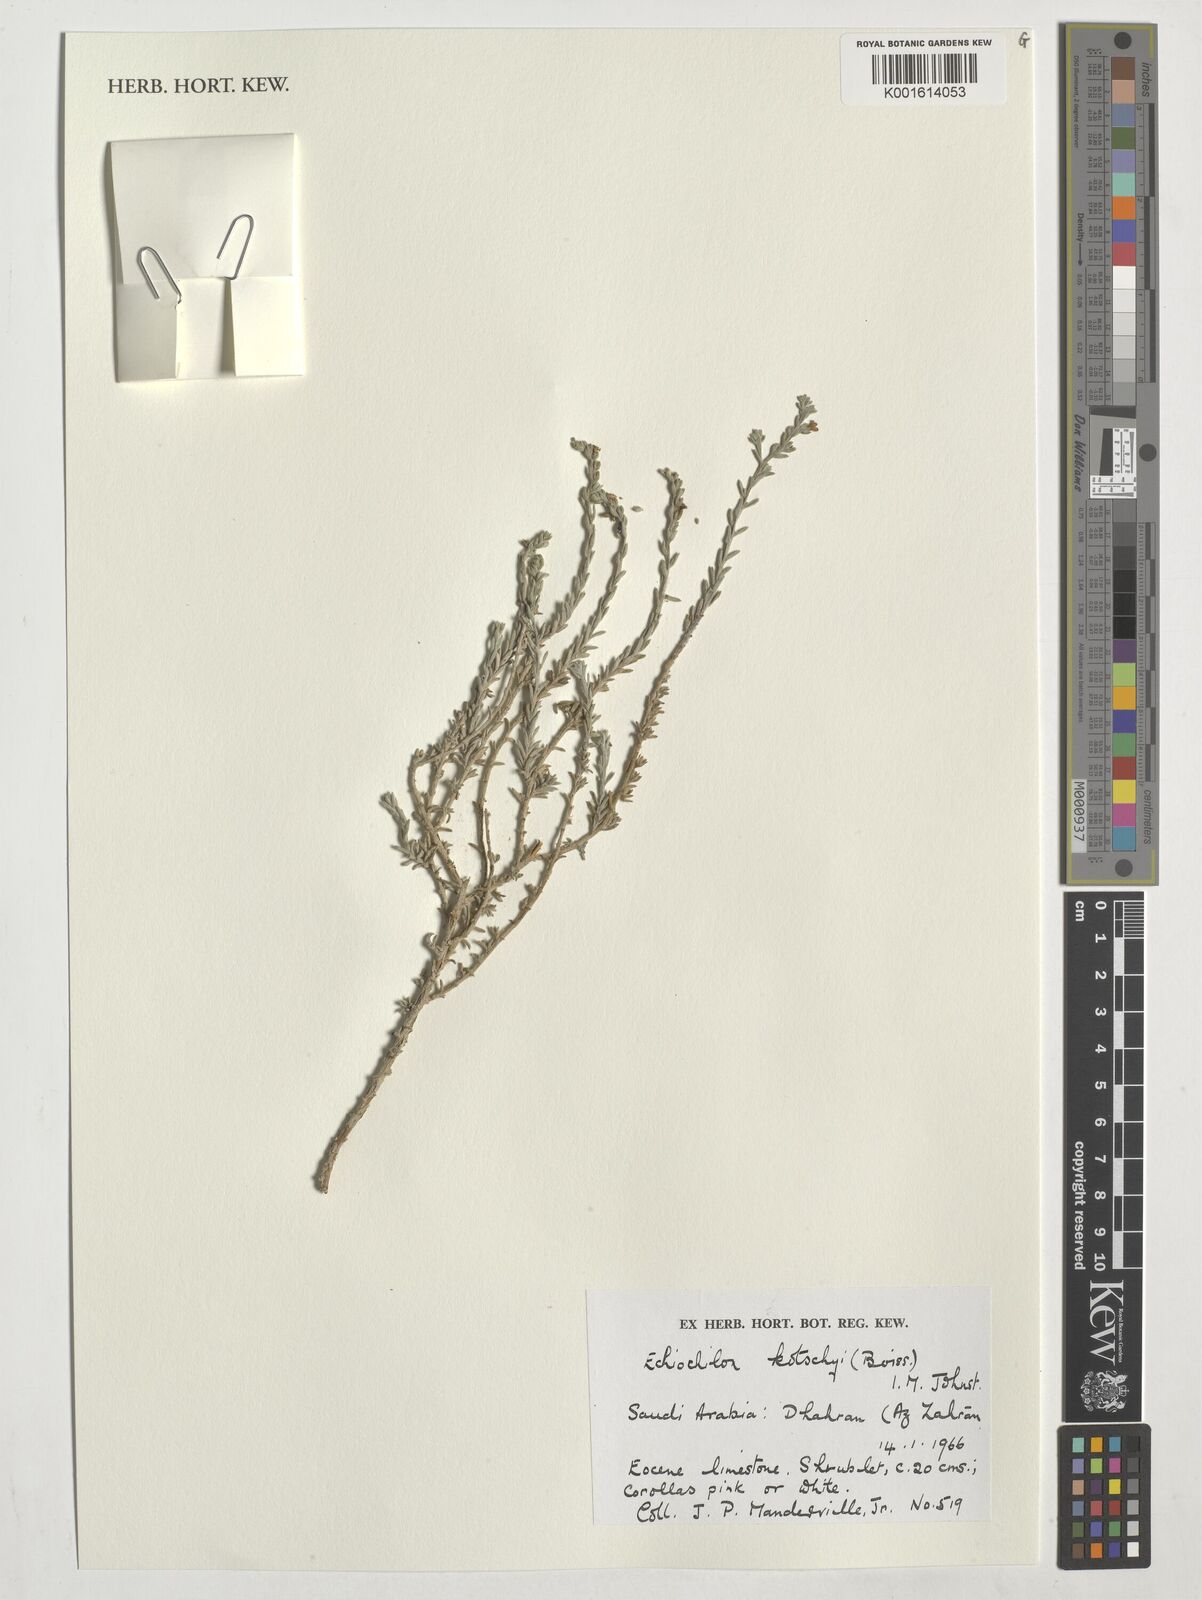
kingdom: Plantae
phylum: Tracheophyta
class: Magnoliopsida
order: Boraginales
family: Boraginaceae
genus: Echiochilon
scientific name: Echiochilon kotschyi
